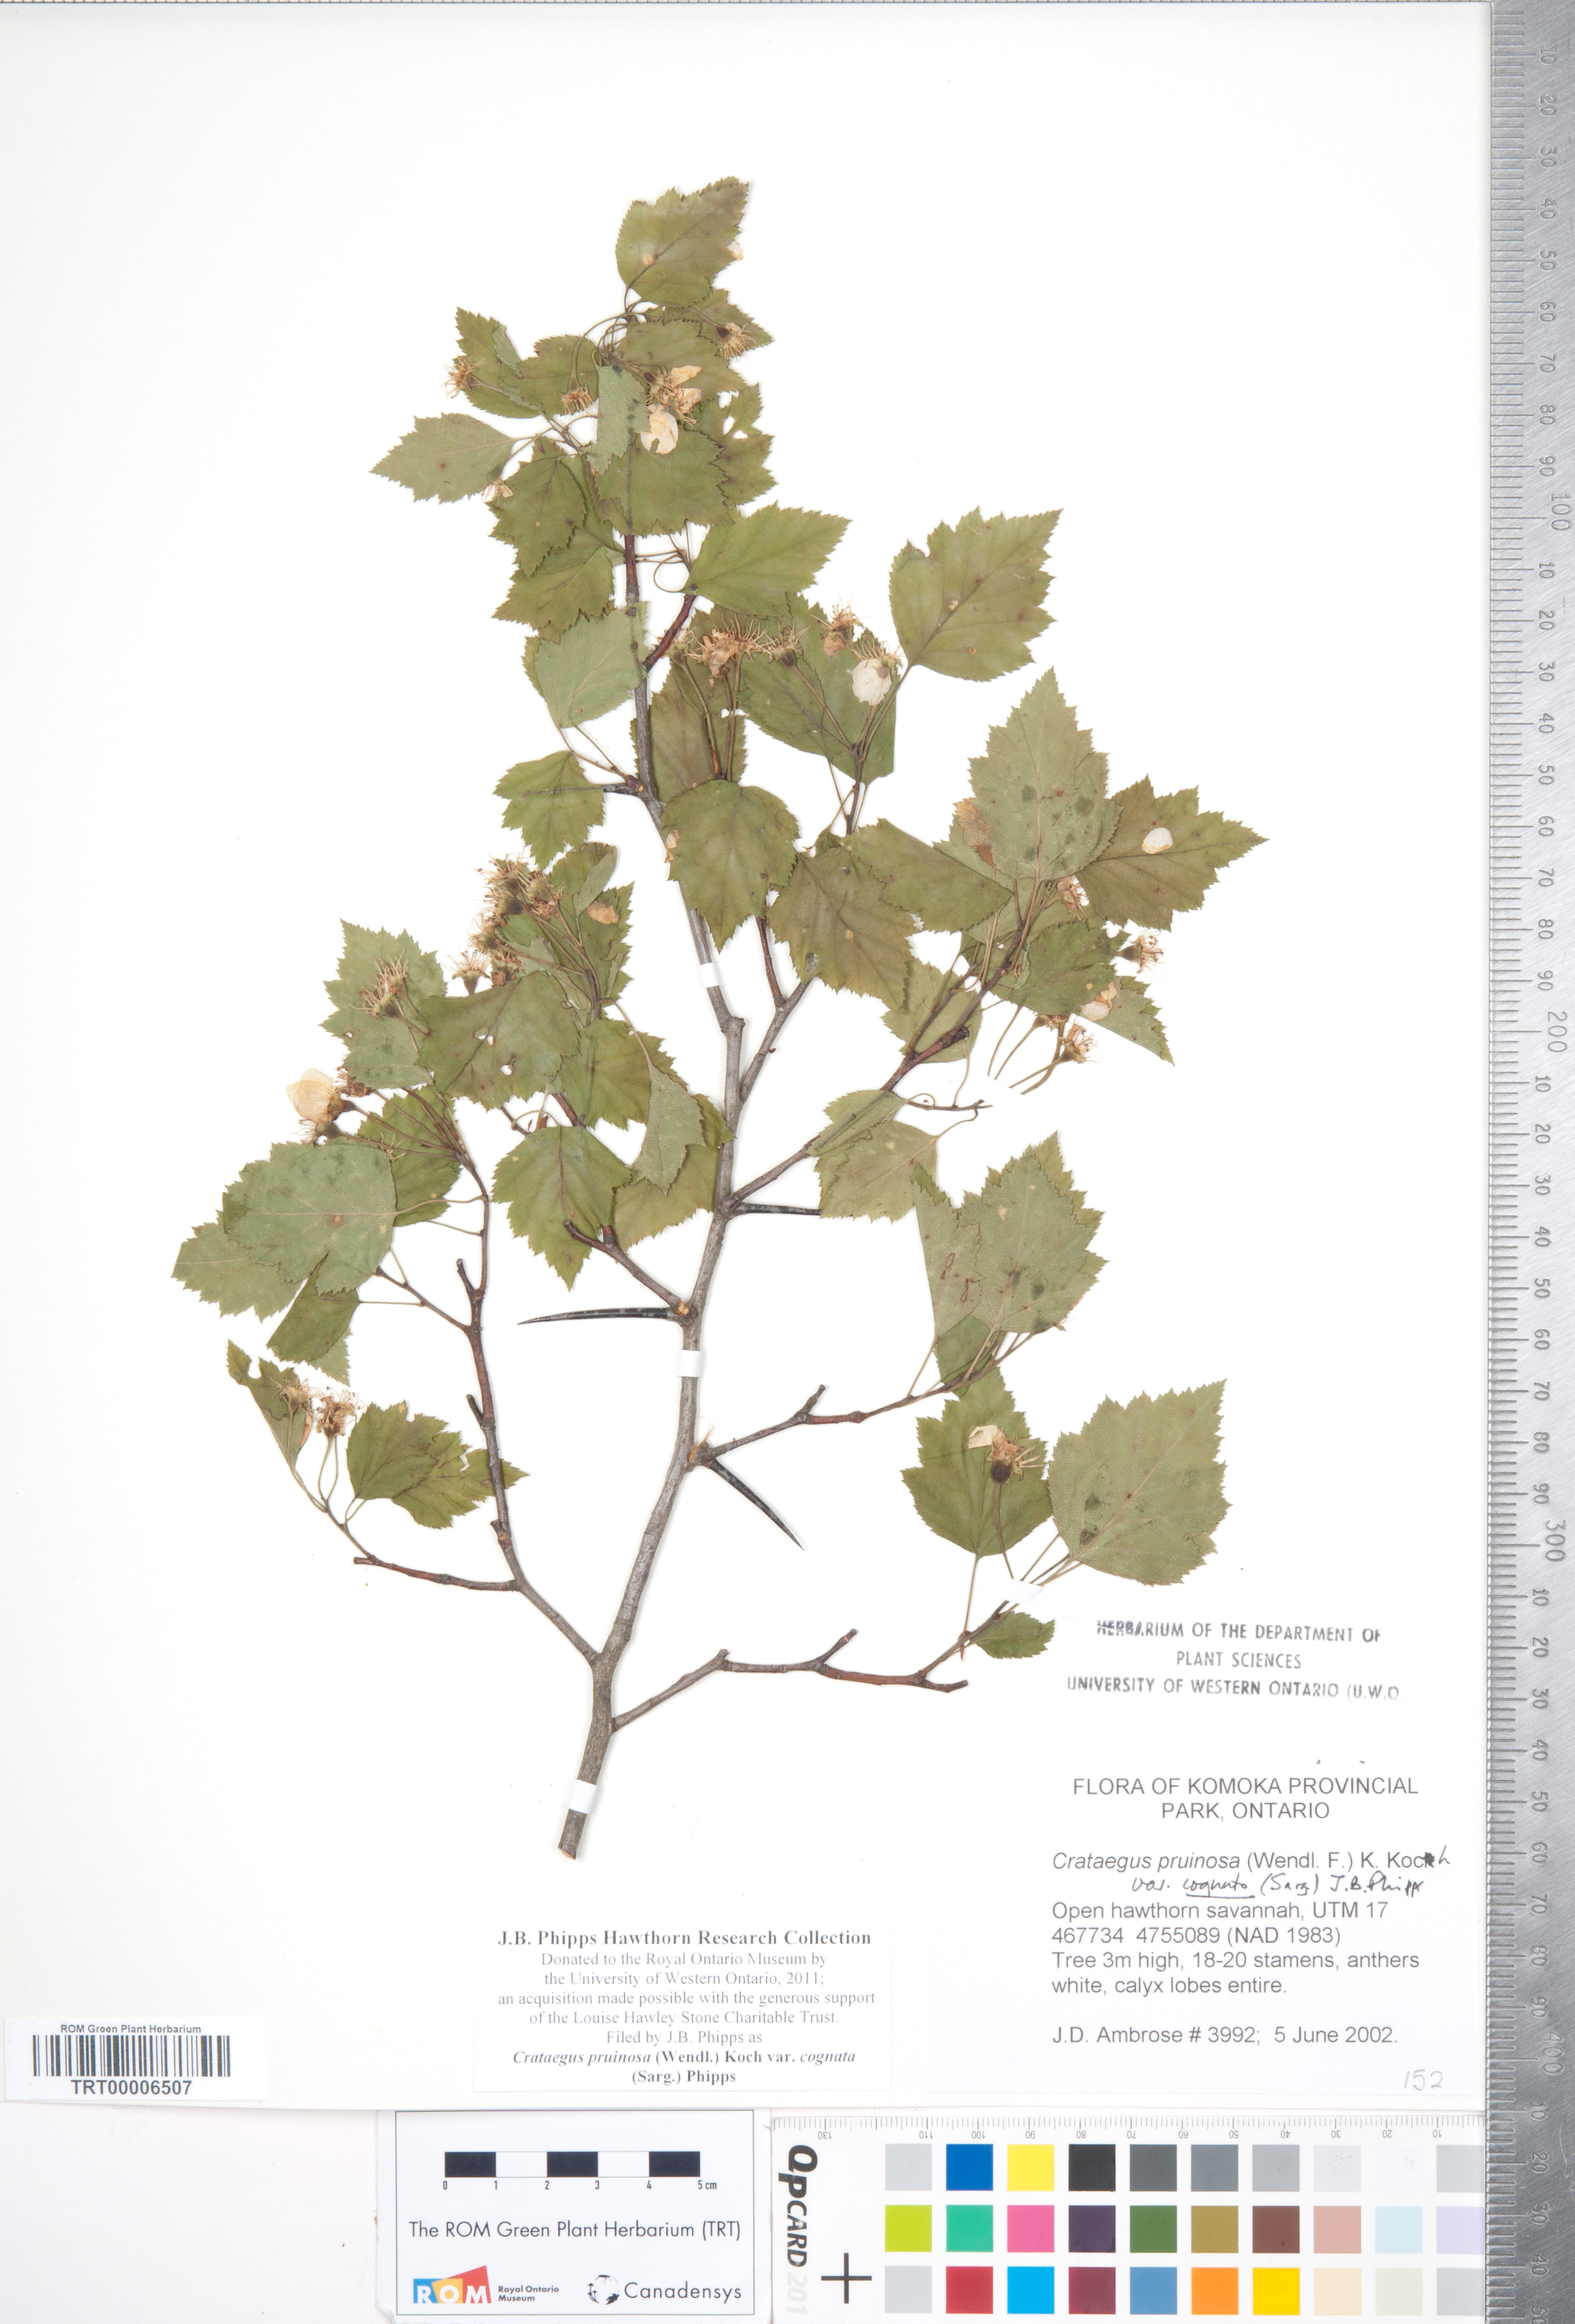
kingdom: Plantae
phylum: Tracheophyta
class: Magnoliopsida
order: Rosales
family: Rosaceae
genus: Crataegus
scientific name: Crataegus
